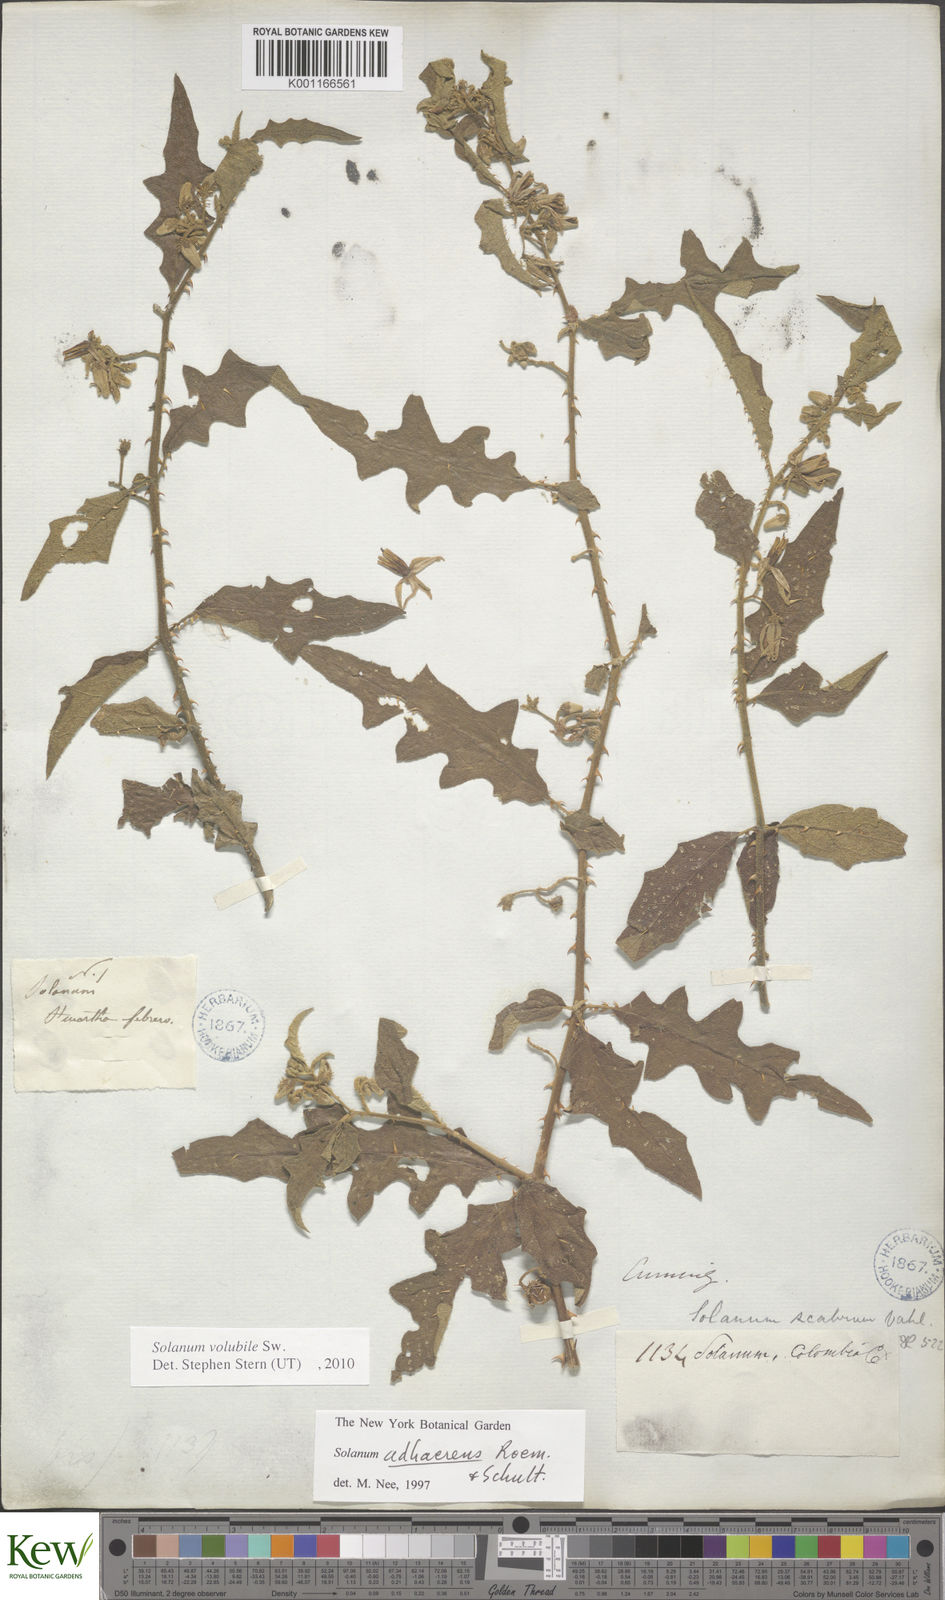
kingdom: Plantae
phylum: Tracheophyta
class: Magnoliopsida
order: Solanales
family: Solanaceae
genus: Solanum
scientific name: Solanum volubile
